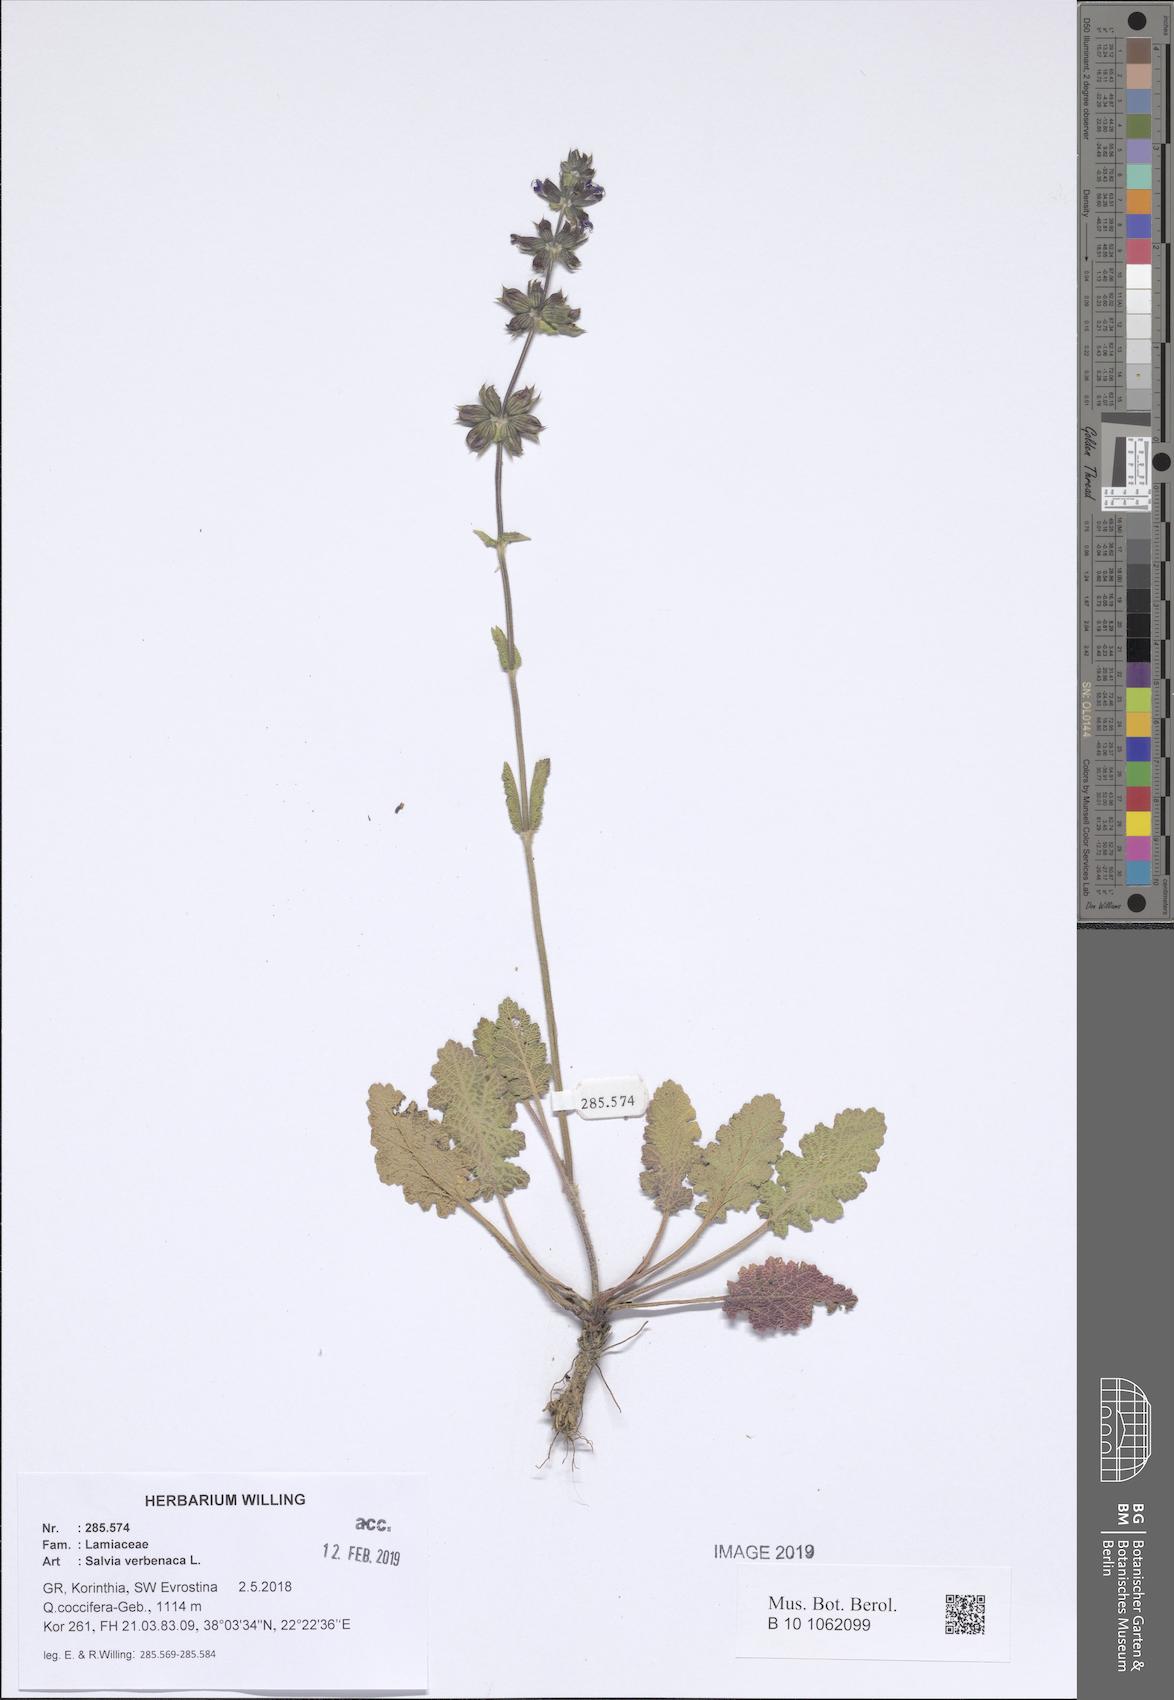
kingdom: Plantae
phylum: Tracheophyta
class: Magnoliopsida
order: Lamiales
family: Lamiaceae
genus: Salvia
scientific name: Salvia verbenaca
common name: Wild clary
